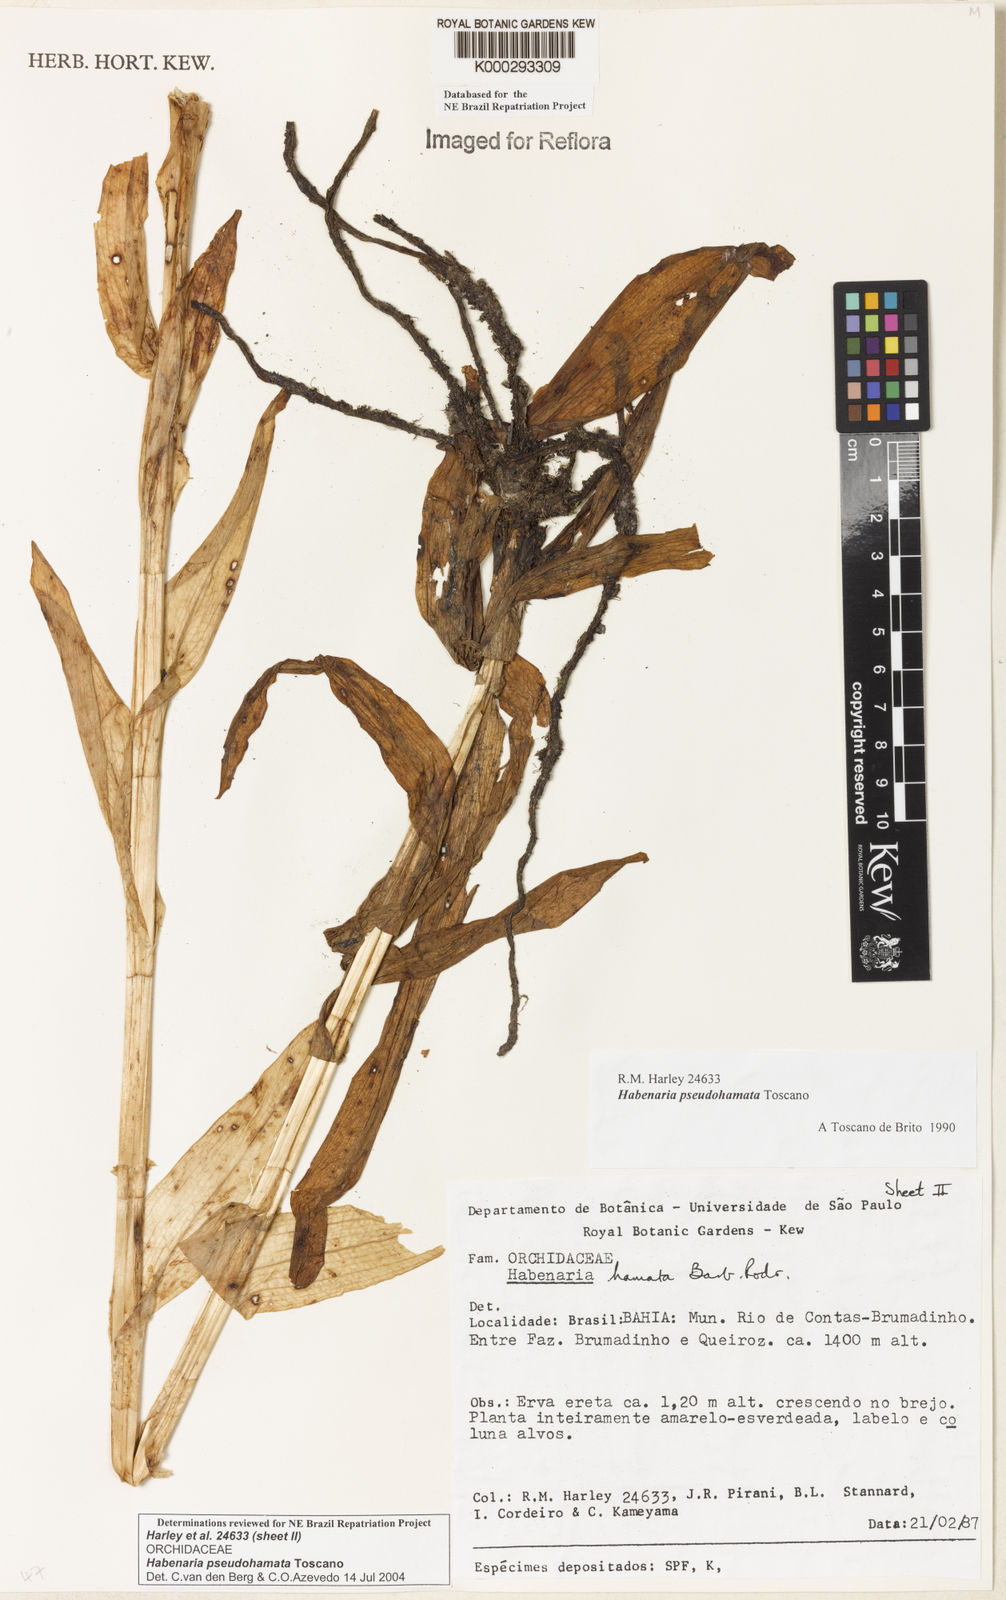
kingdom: Plantae
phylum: Tracheophyta
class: Liliopsida
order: Asparagales
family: Orchidaceae
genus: Habenaria
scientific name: Habenaria pseudohamata
